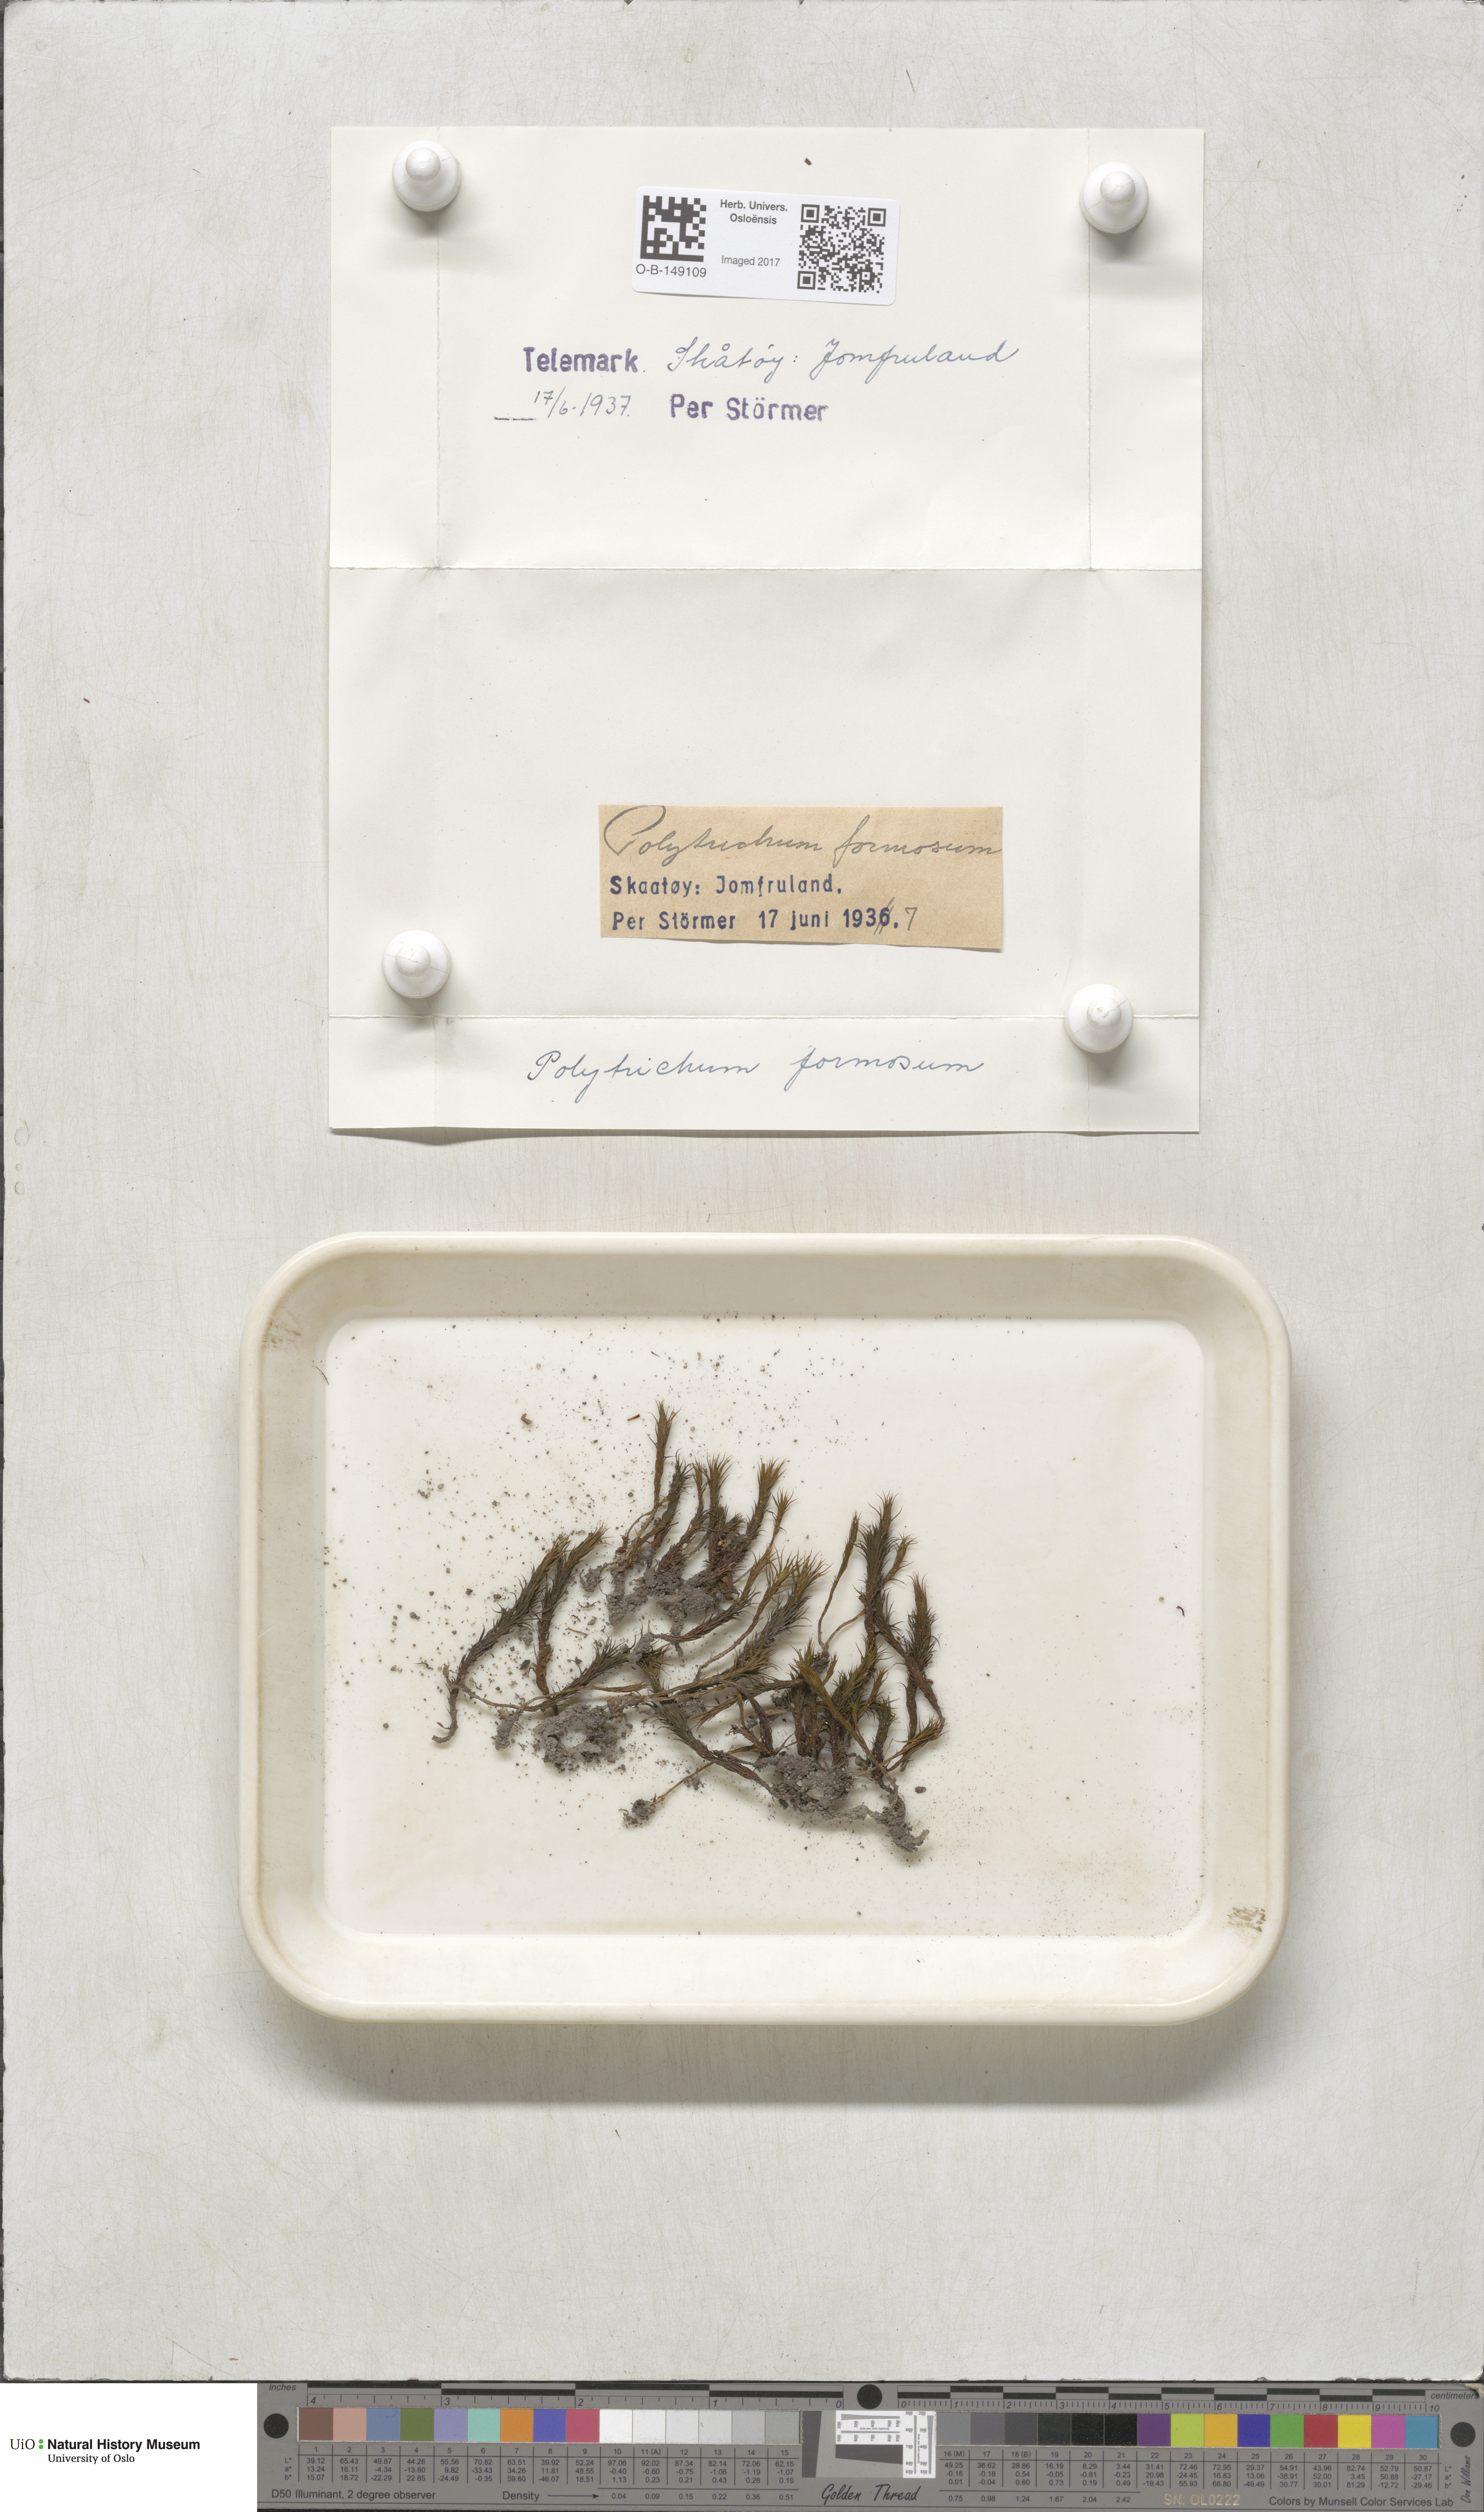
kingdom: Plantae
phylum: Bryophyta
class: Polytrichopsida
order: Polytrichales
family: Polytrichaceae
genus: Polytrichum
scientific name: Polytrichum formosum
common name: Bank haircap moss
